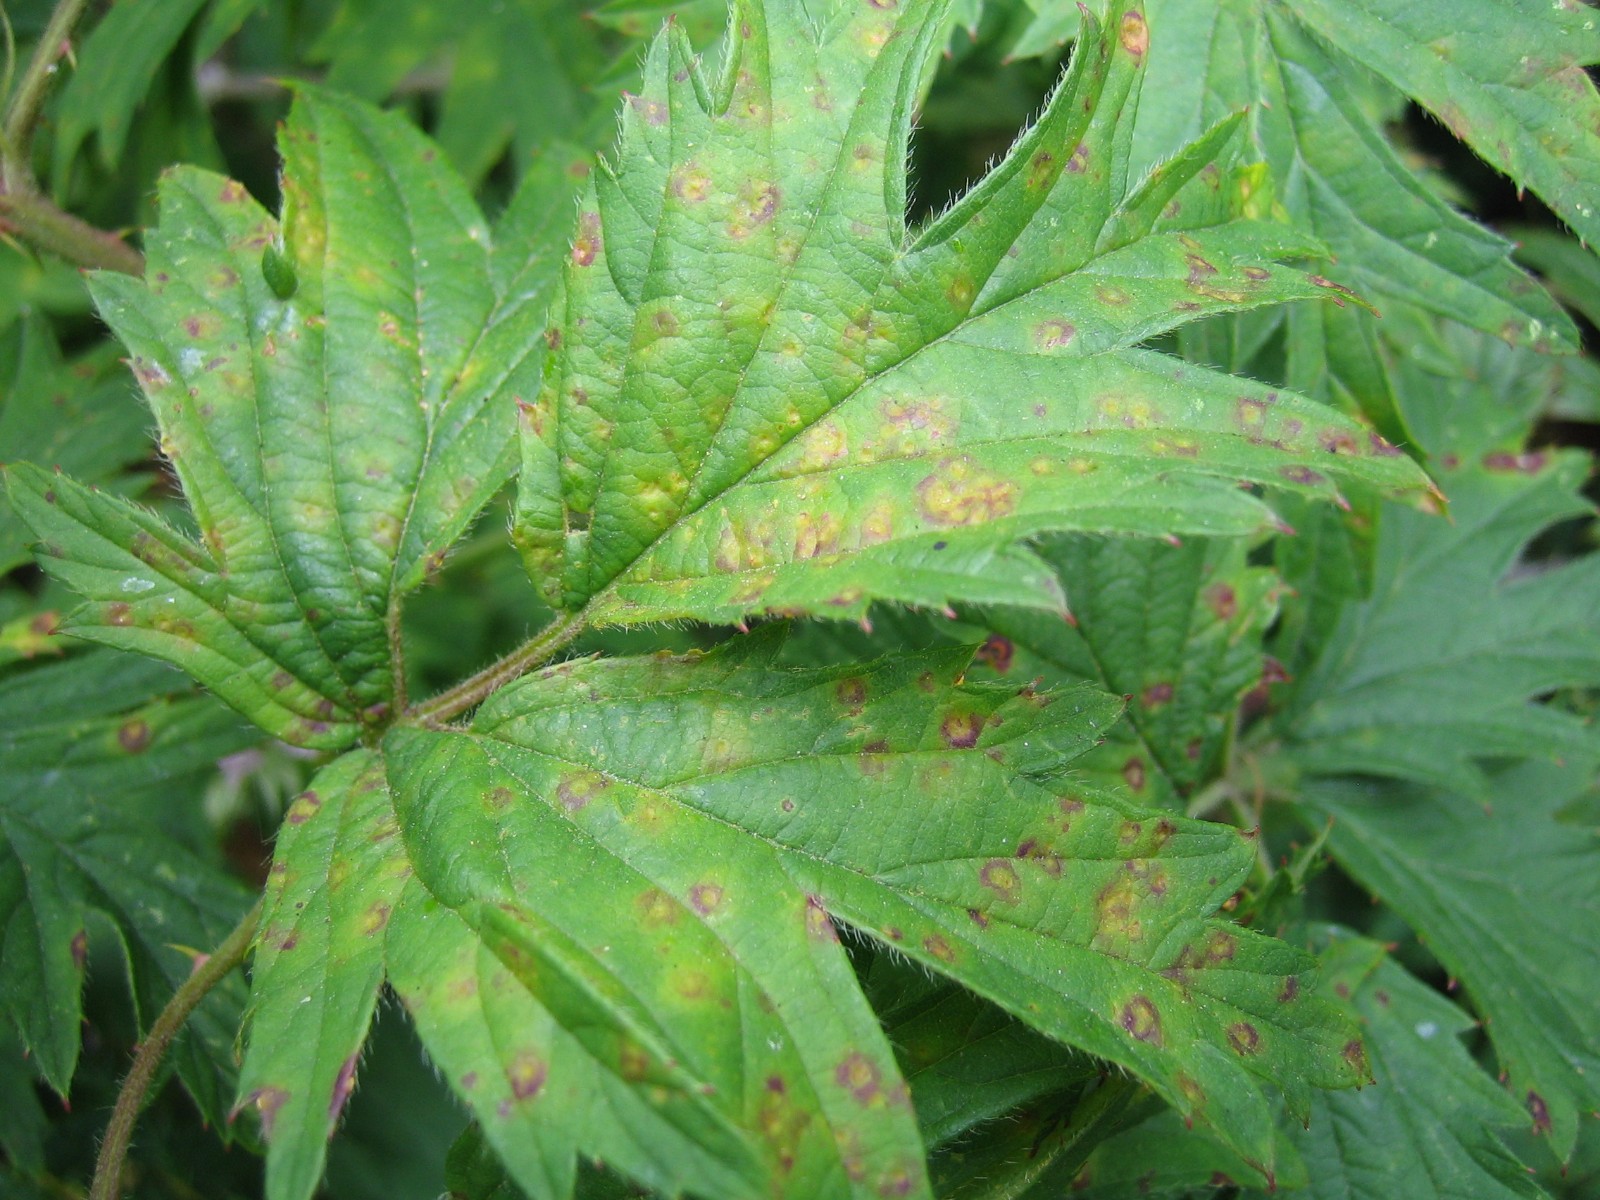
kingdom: Fungi
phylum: Basidiomycota
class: Pucciniomycetes
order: Pucciniales
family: Phragmidiaceae
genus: Phragmidium
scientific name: Phragmidium
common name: flercellerust
